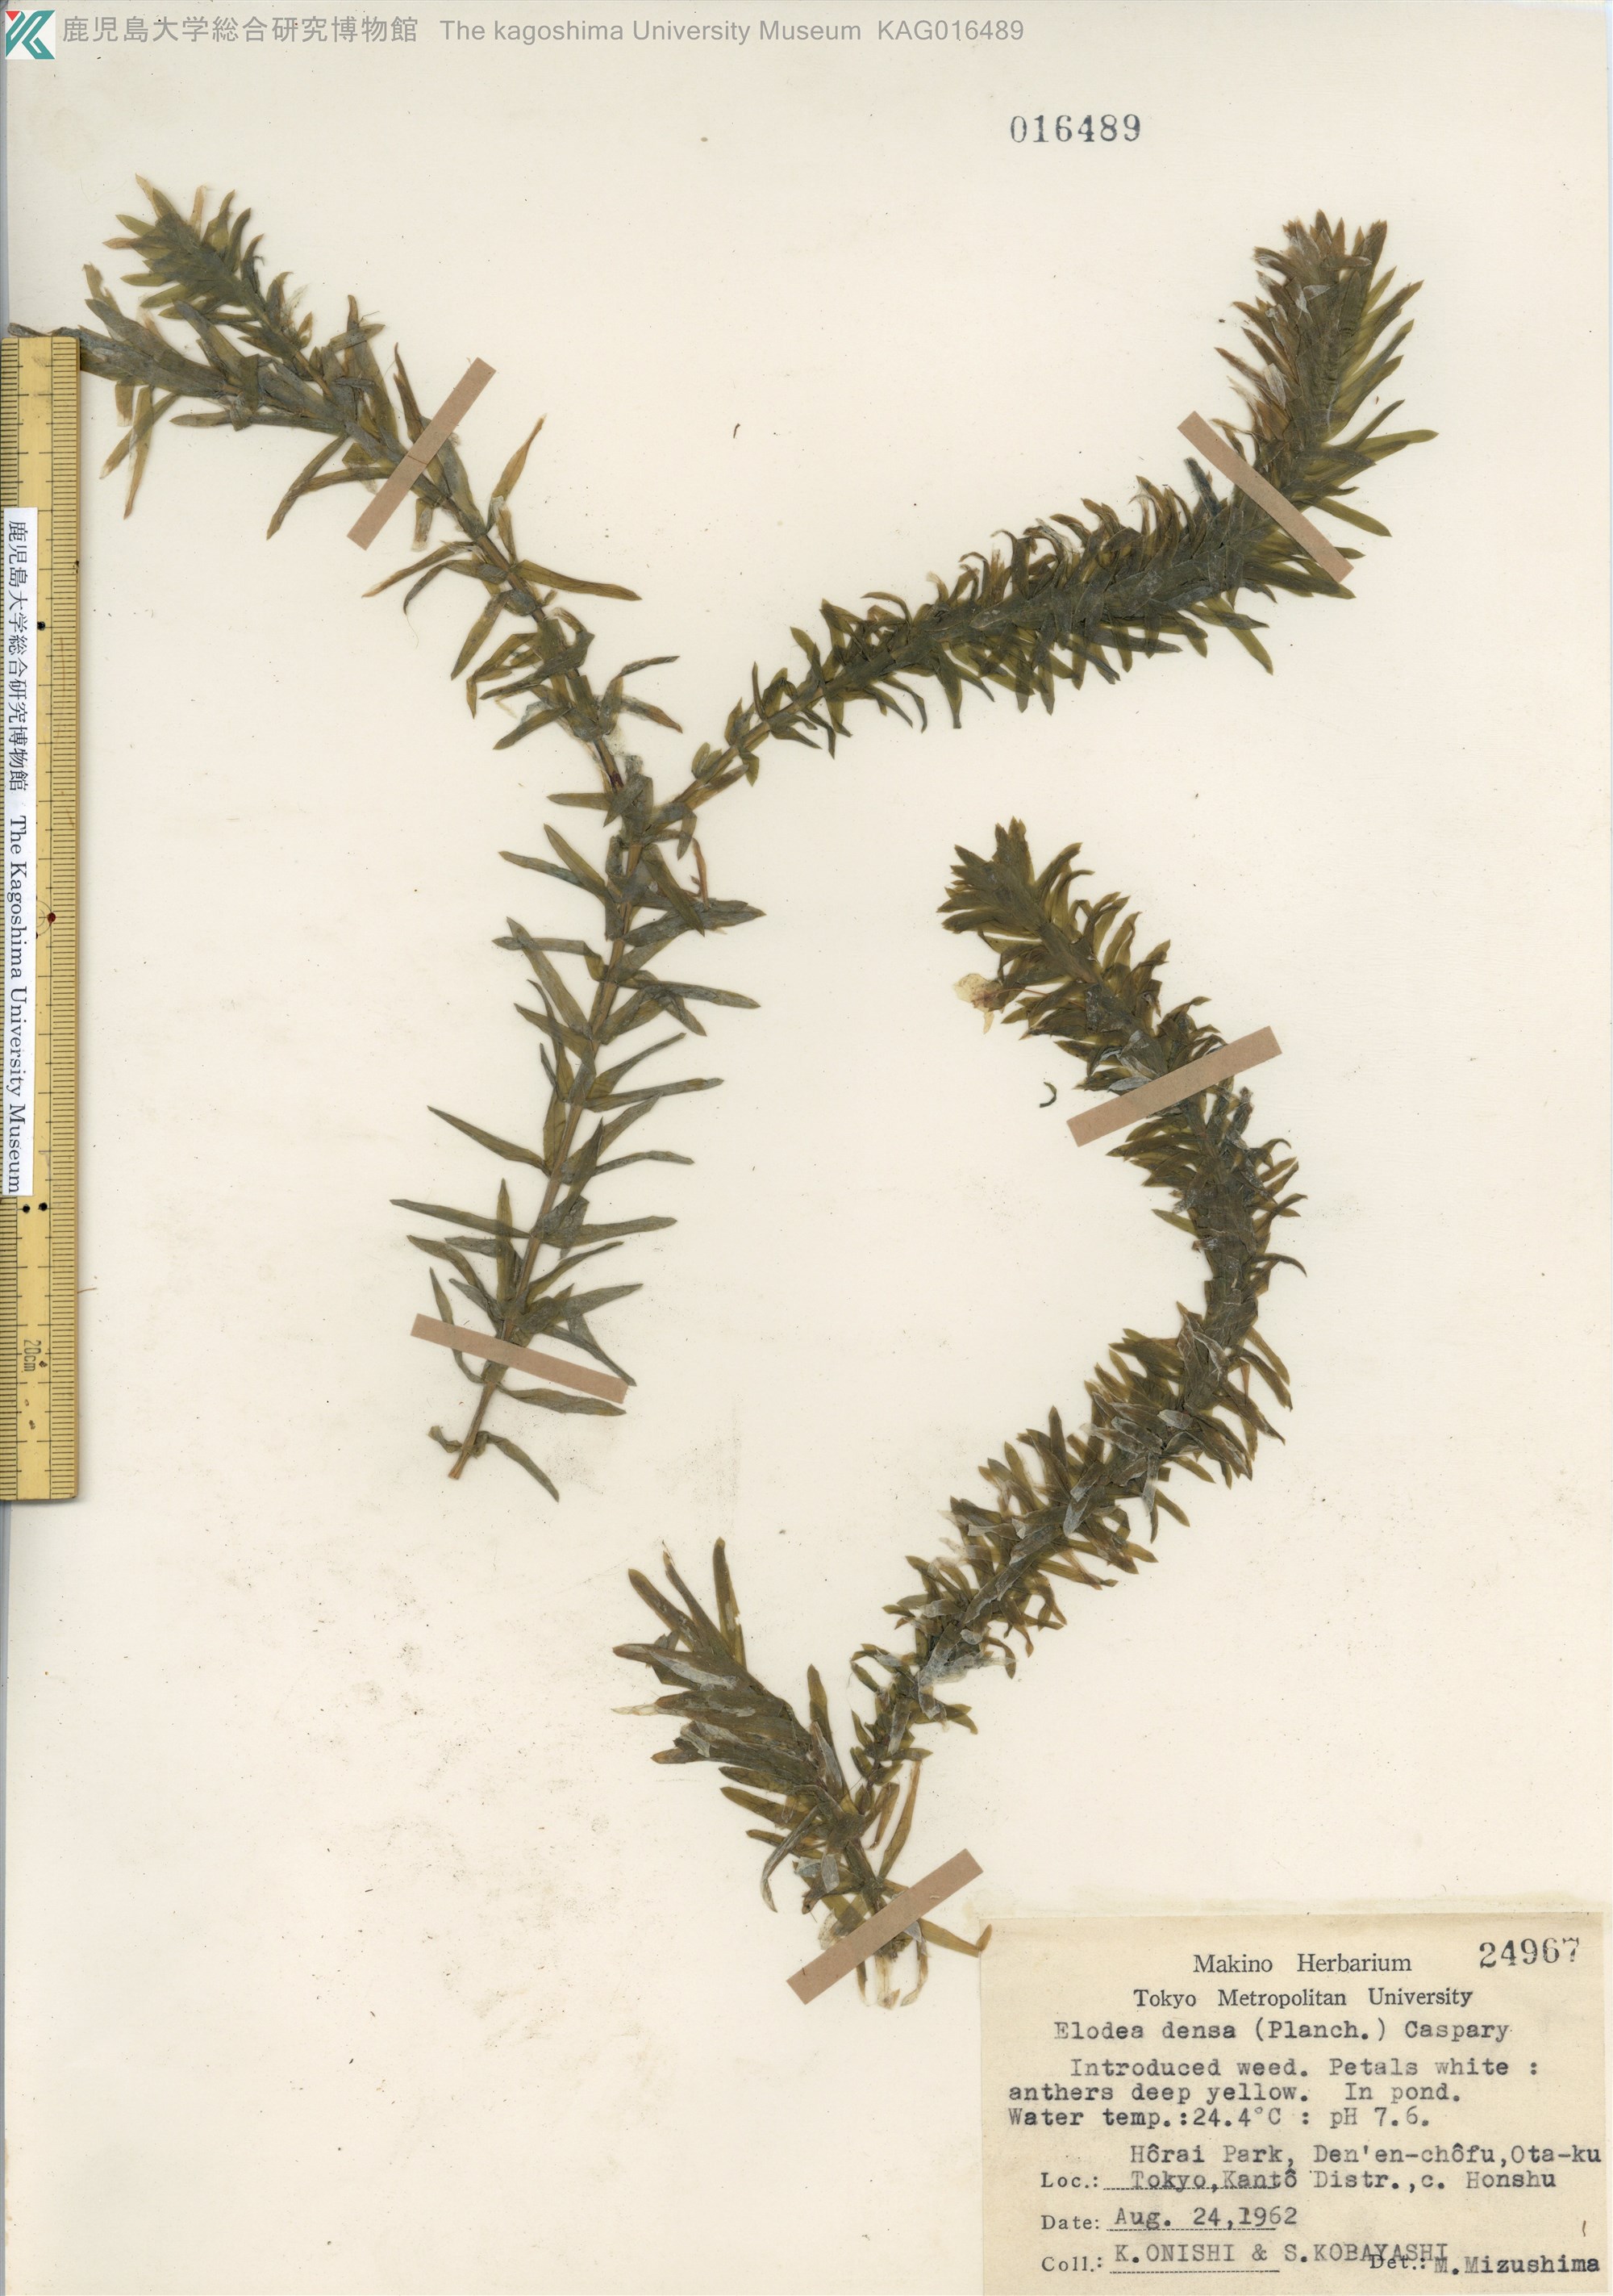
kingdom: Plantae
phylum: Tracheophyta
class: Liliopsida
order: Alismatales
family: Hydrocharitaceae
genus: Elodea
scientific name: Elodea
